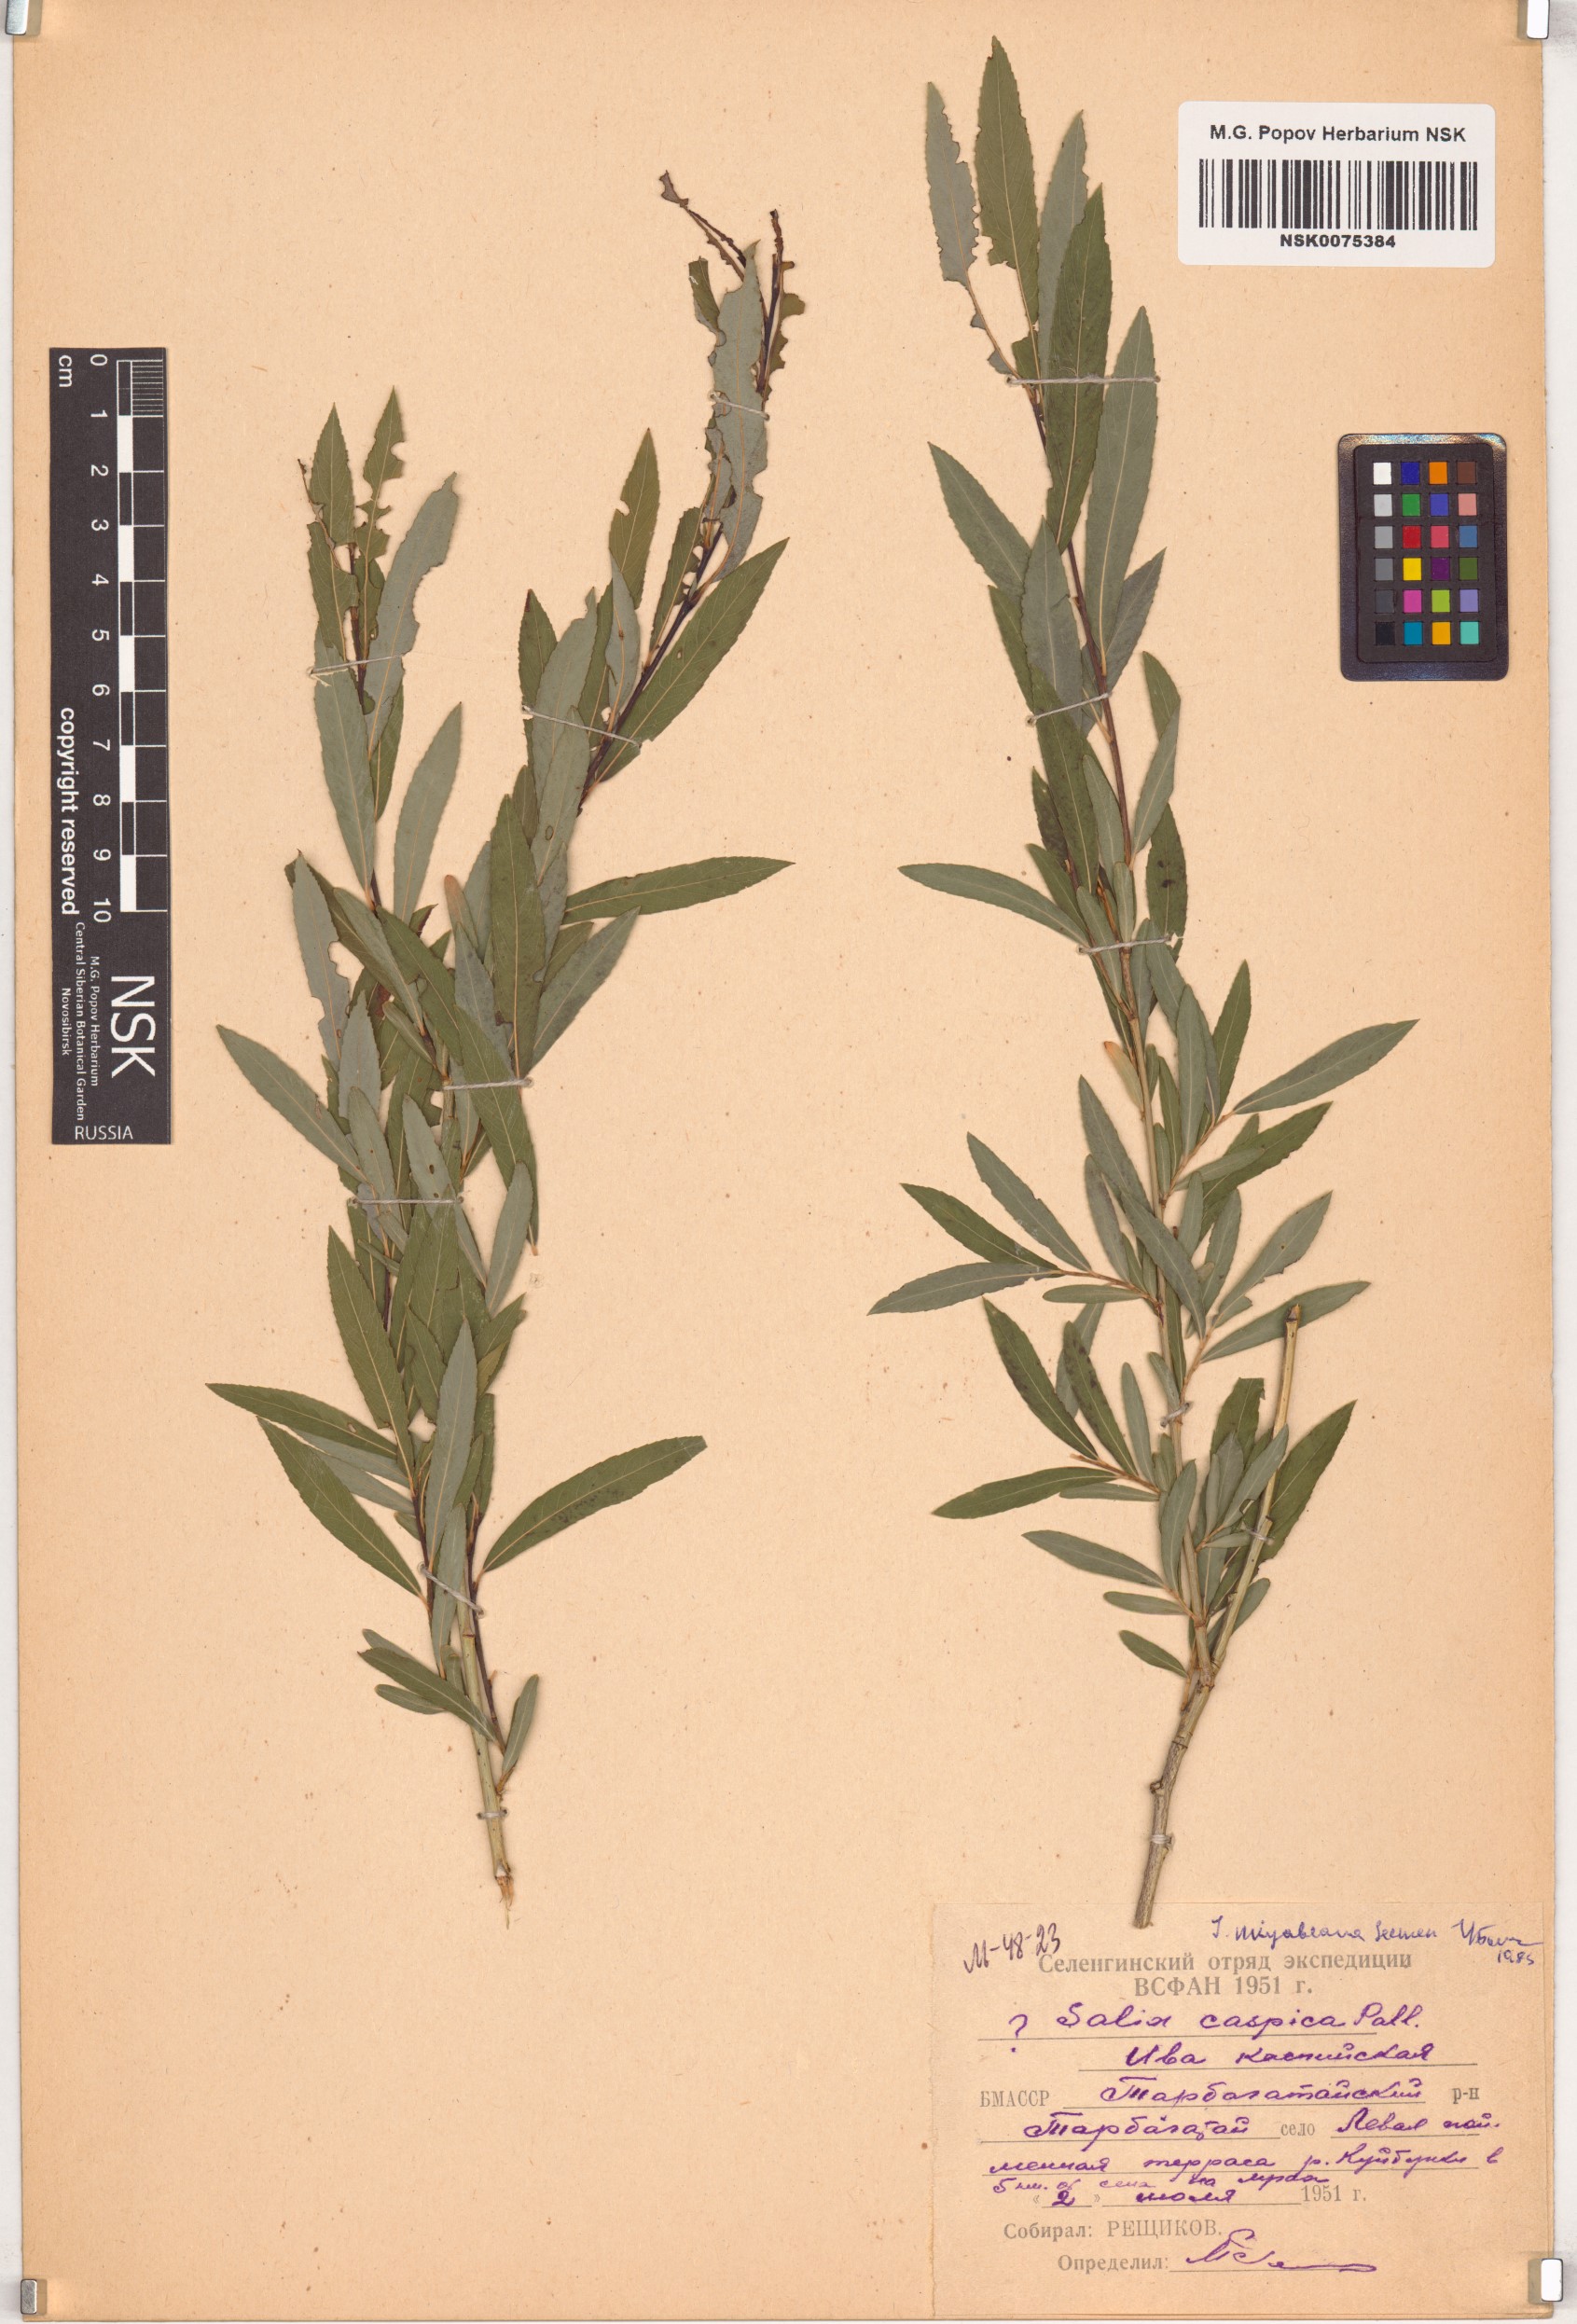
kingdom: Plantae
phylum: Tracheophyta
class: Magnoliopsida
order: Malpighiales
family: Salicaceae
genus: Salix
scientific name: Salix miyabeana
